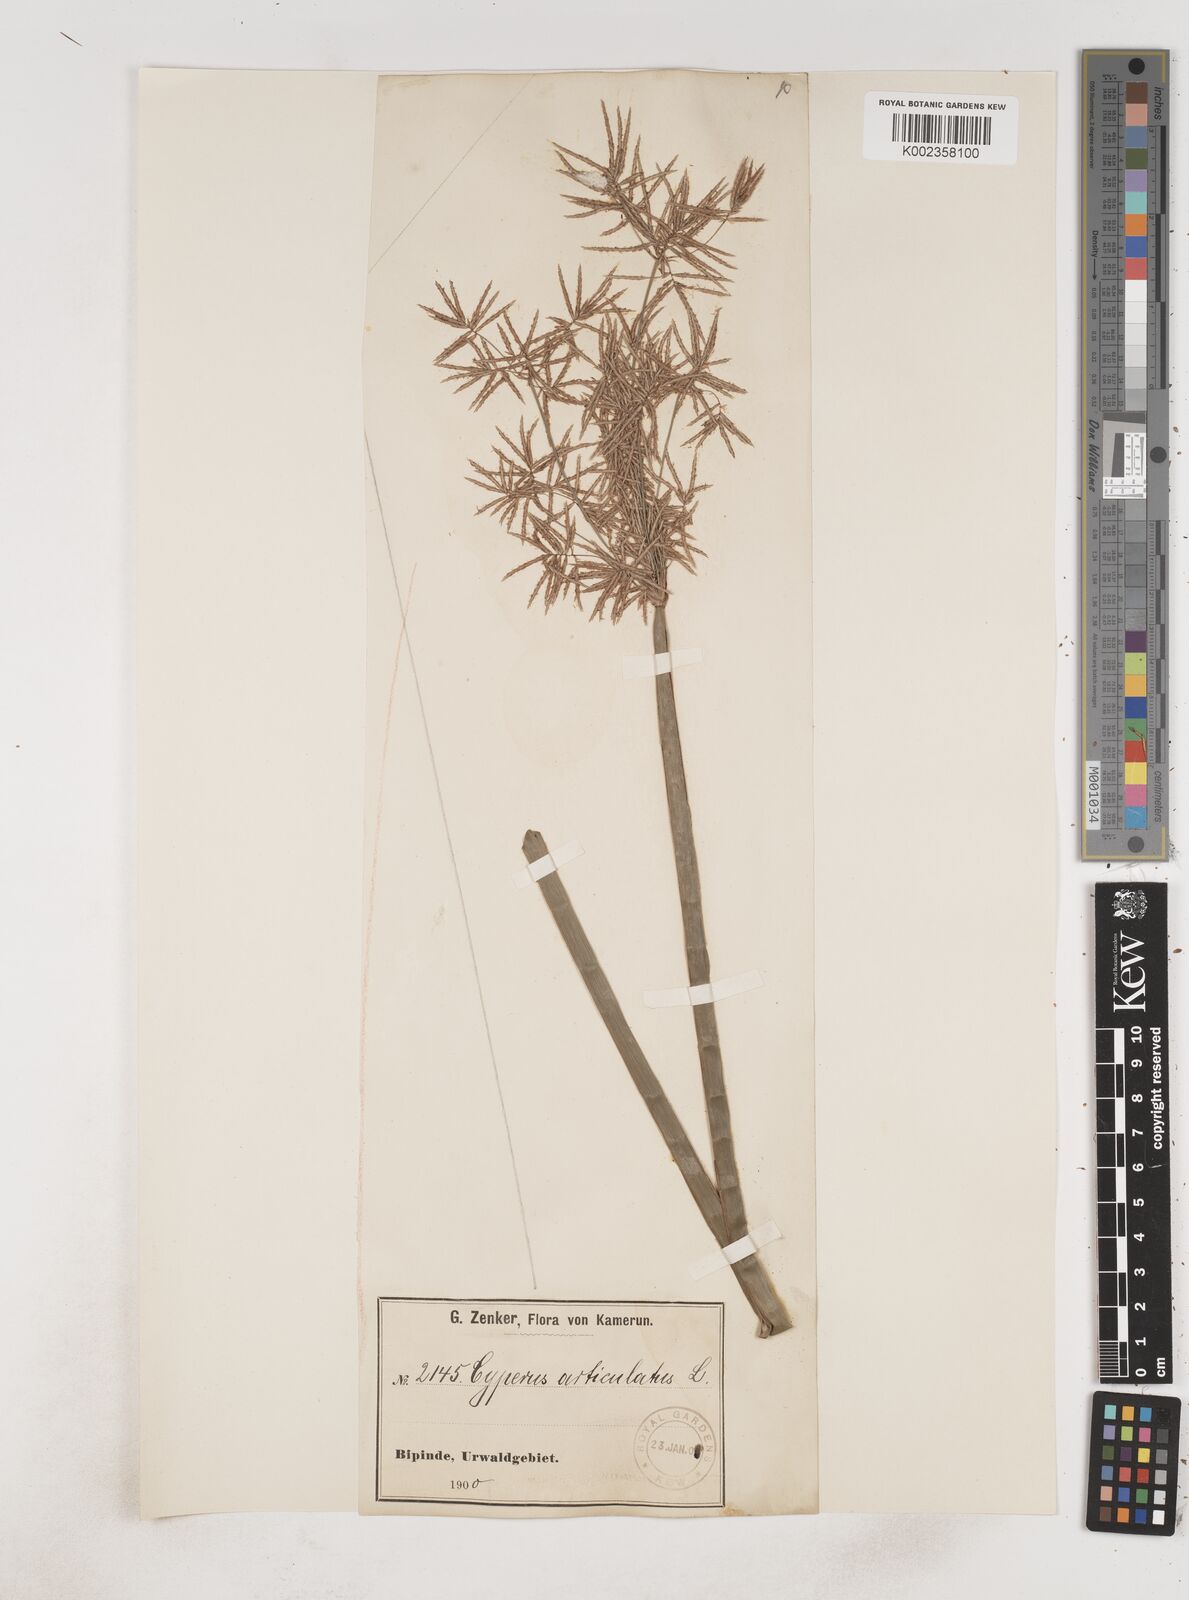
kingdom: Plantae
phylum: Tracheophyta
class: Liliopsida
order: Poales
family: Cyperaceae
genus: Cyperus
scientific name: Cyperus articulatus
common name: Jointed flatsedge
